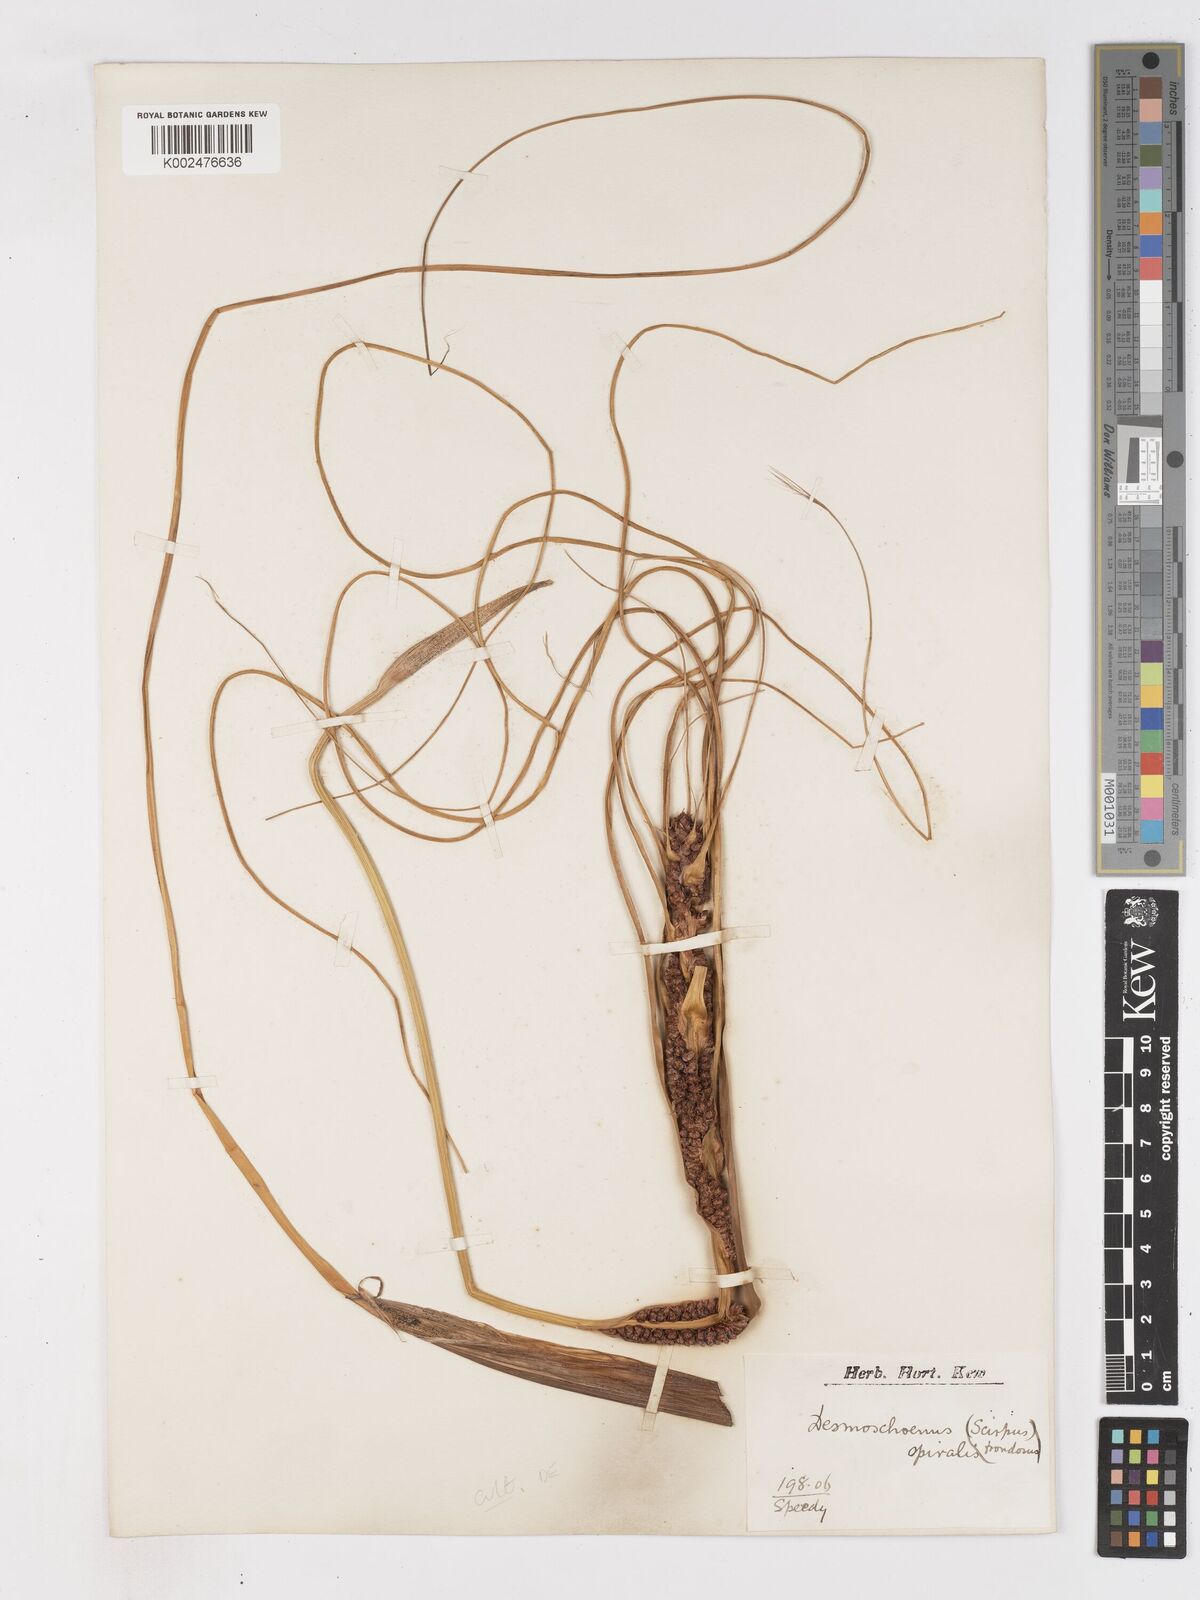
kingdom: Plantae
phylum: Tracheophyta
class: Liliopsida
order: Poales
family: Cyperaceae
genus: Ficinia
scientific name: Ficinia spiralis
